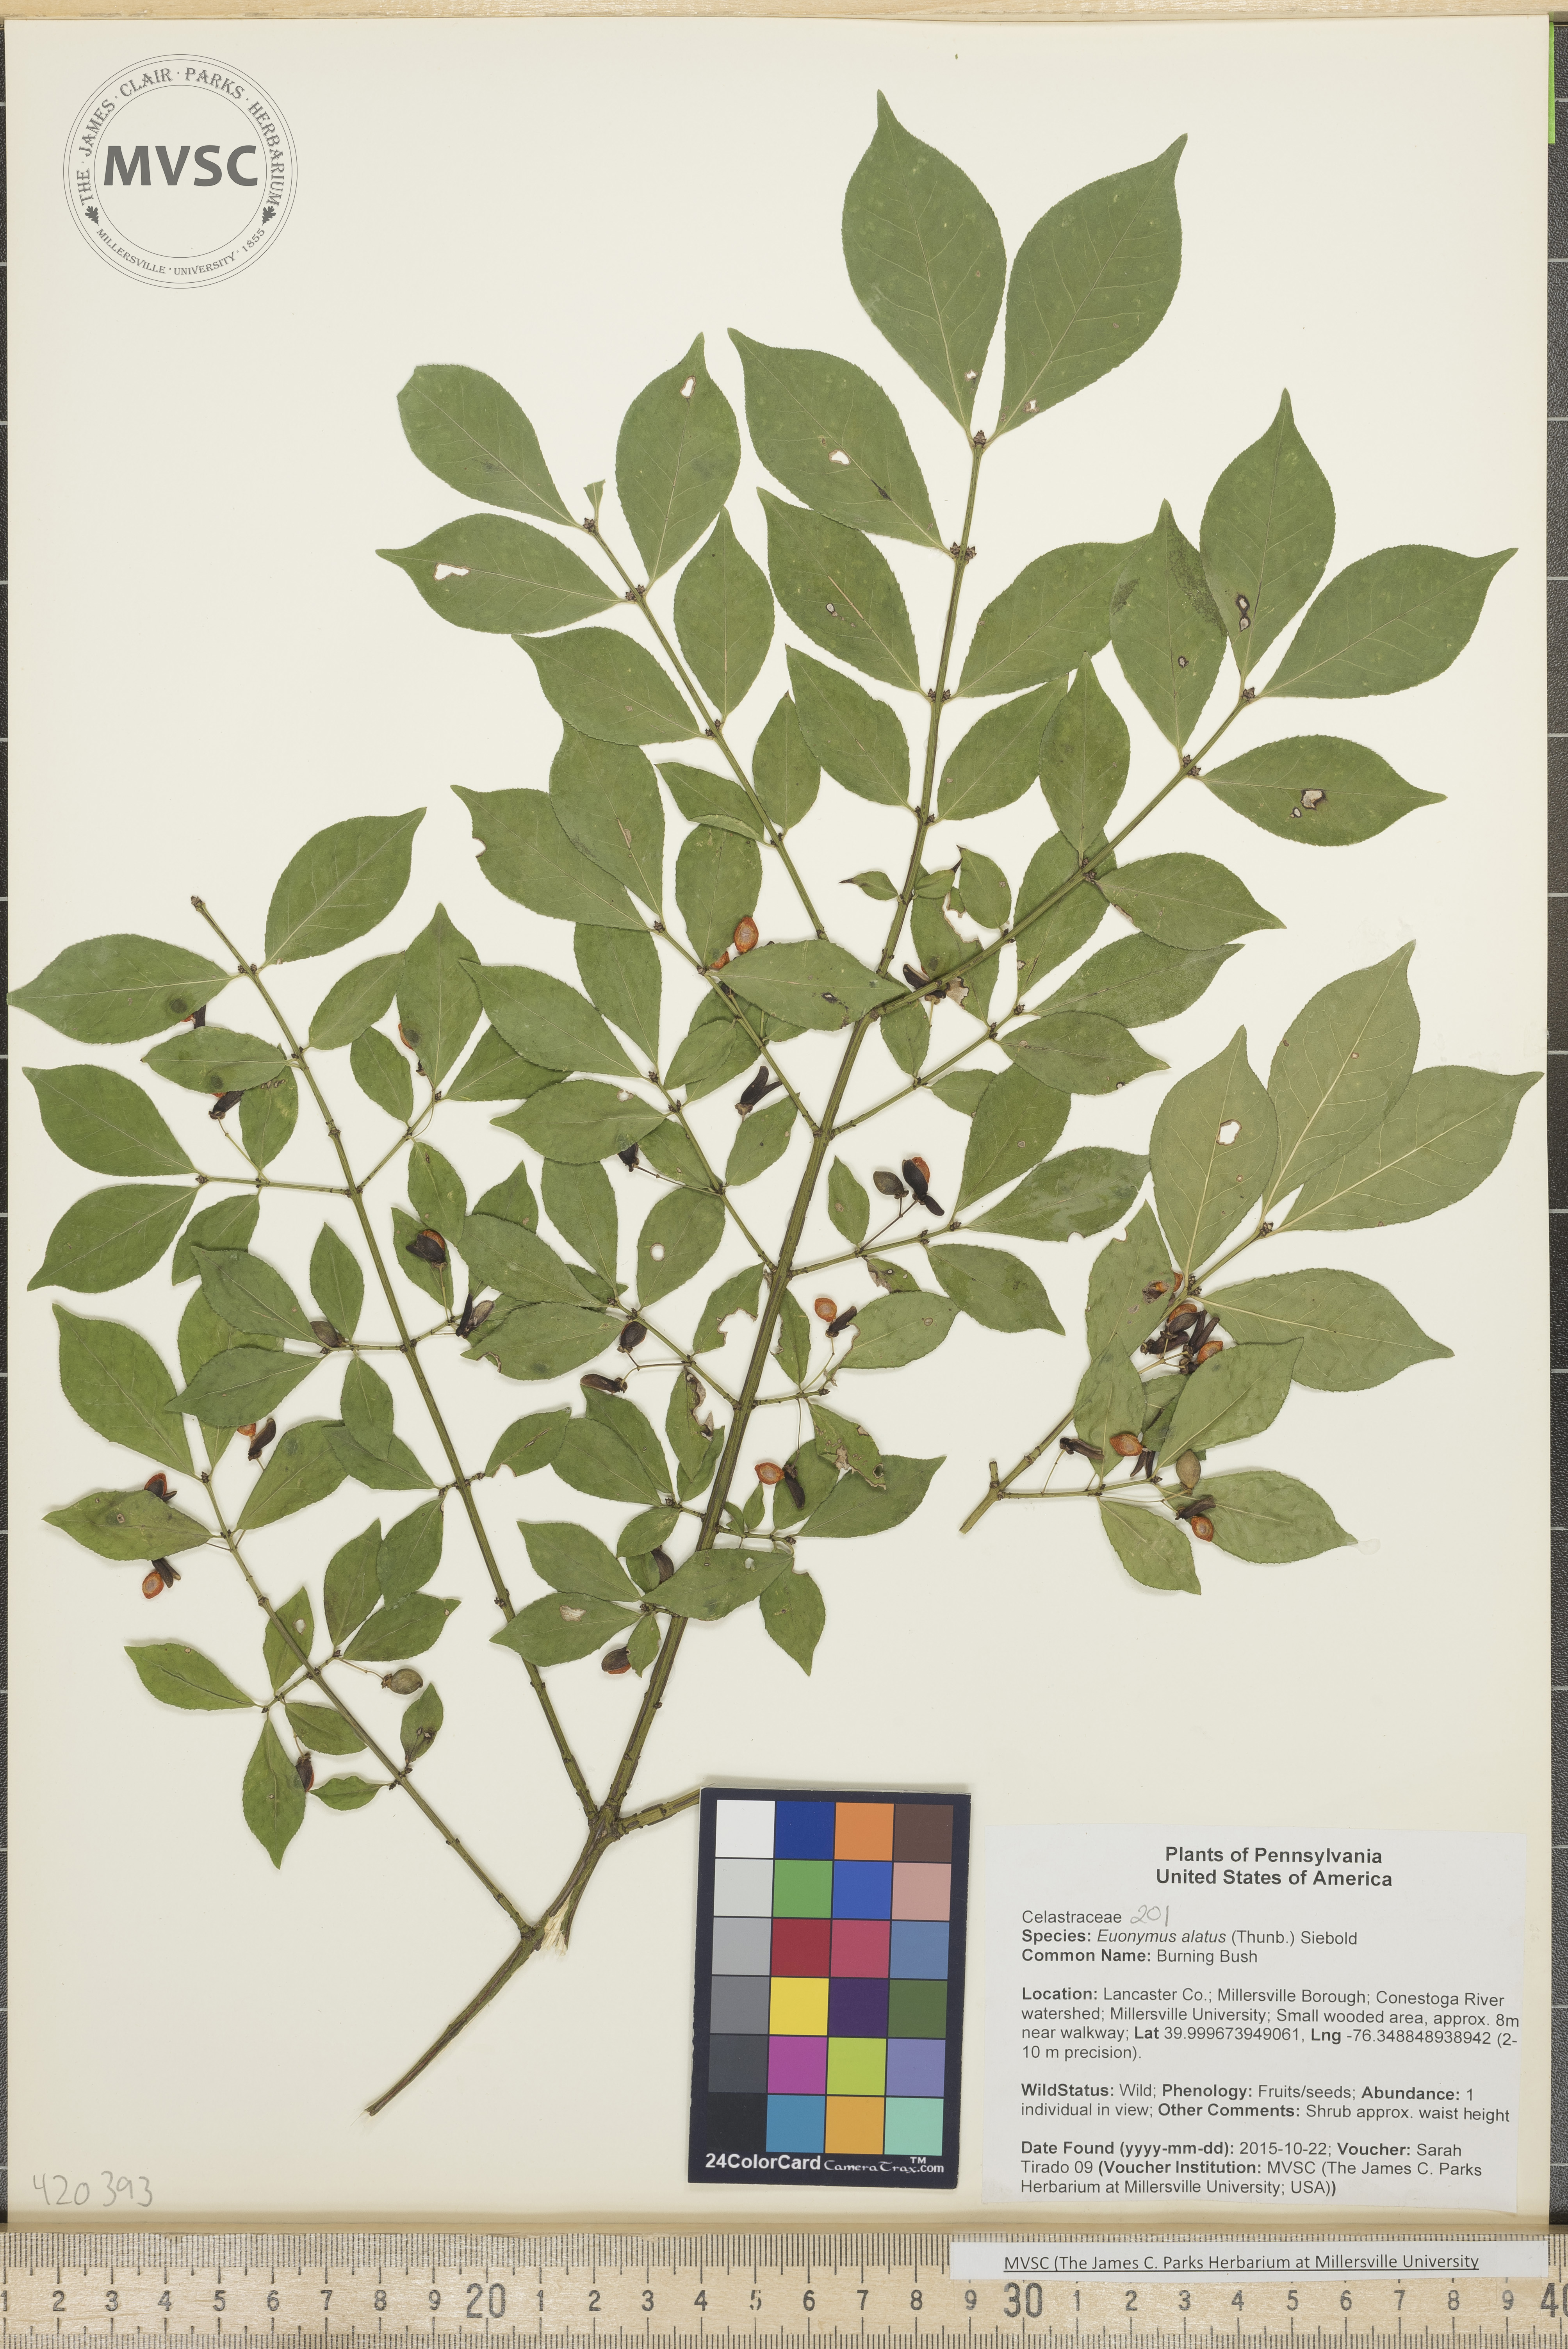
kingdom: Plantae
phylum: Tracheophyta
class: Magnoliopsida
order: Celastrales
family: Celastraceae
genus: Euonymus
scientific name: Euonymus alatus
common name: Burning Bush
